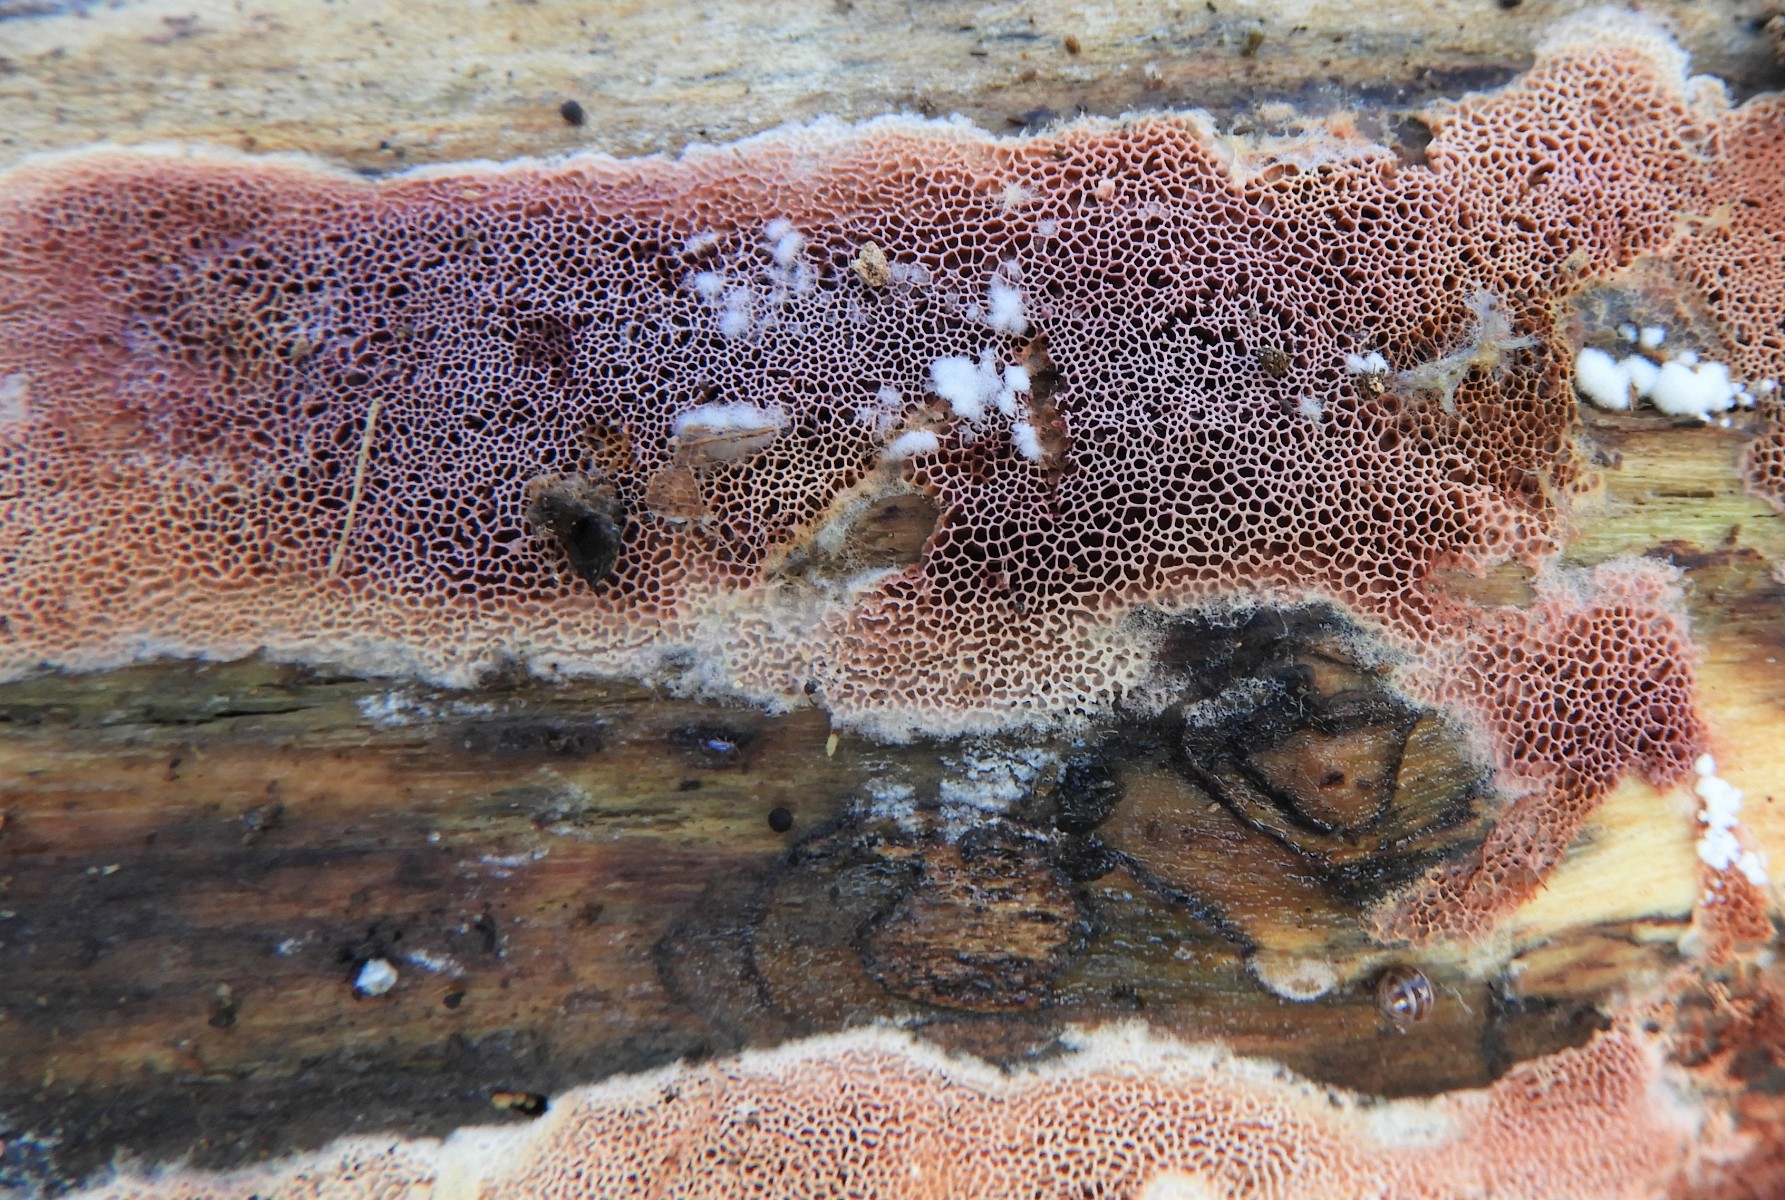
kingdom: Fungi
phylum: Basidiomycota
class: Agaricomycetes
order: Polyporales
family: Irpicaceae
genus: Ceriporia
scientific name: Ceriporia
